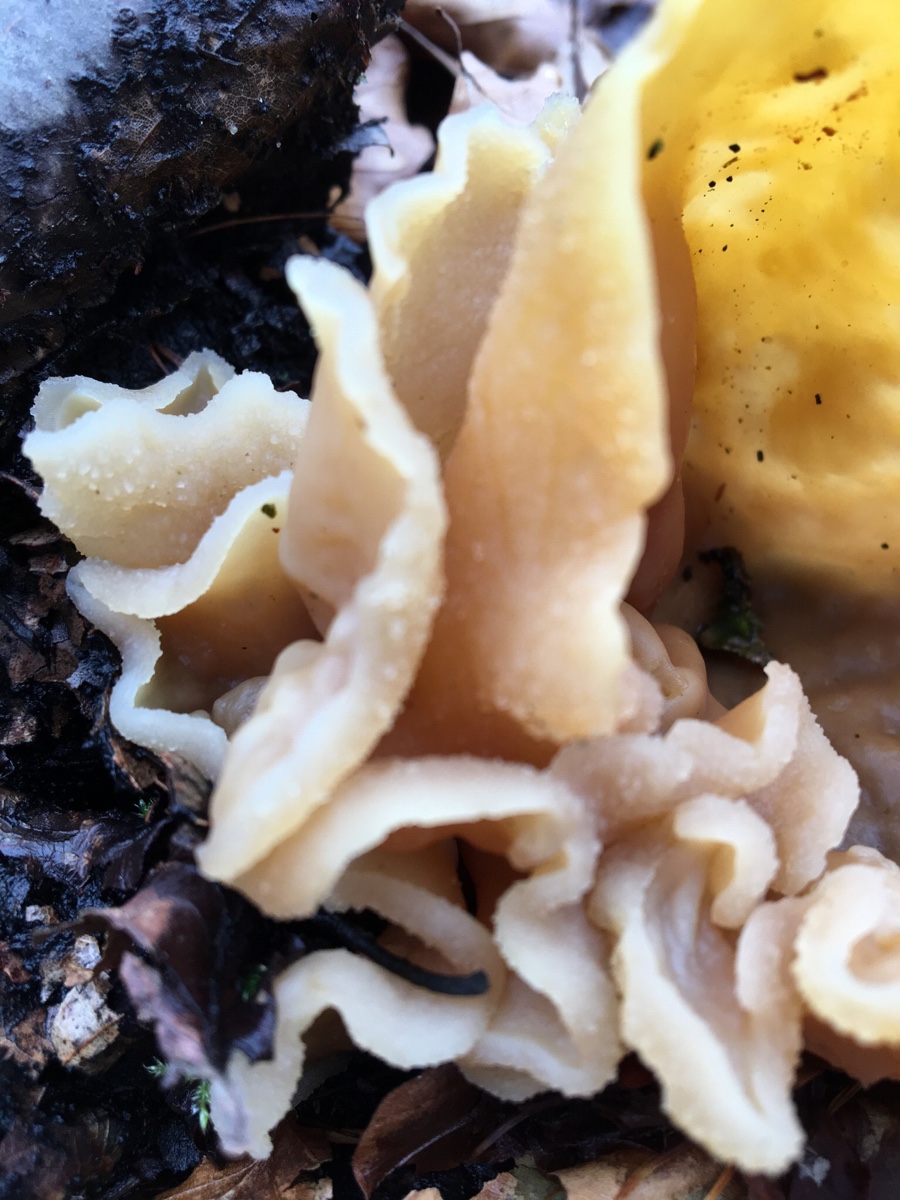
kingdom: Fungi
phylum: Ascomycota
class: Pezizomycetes
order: Pezizales
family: Pezizaceae
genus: Peziza
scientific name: Peziza
